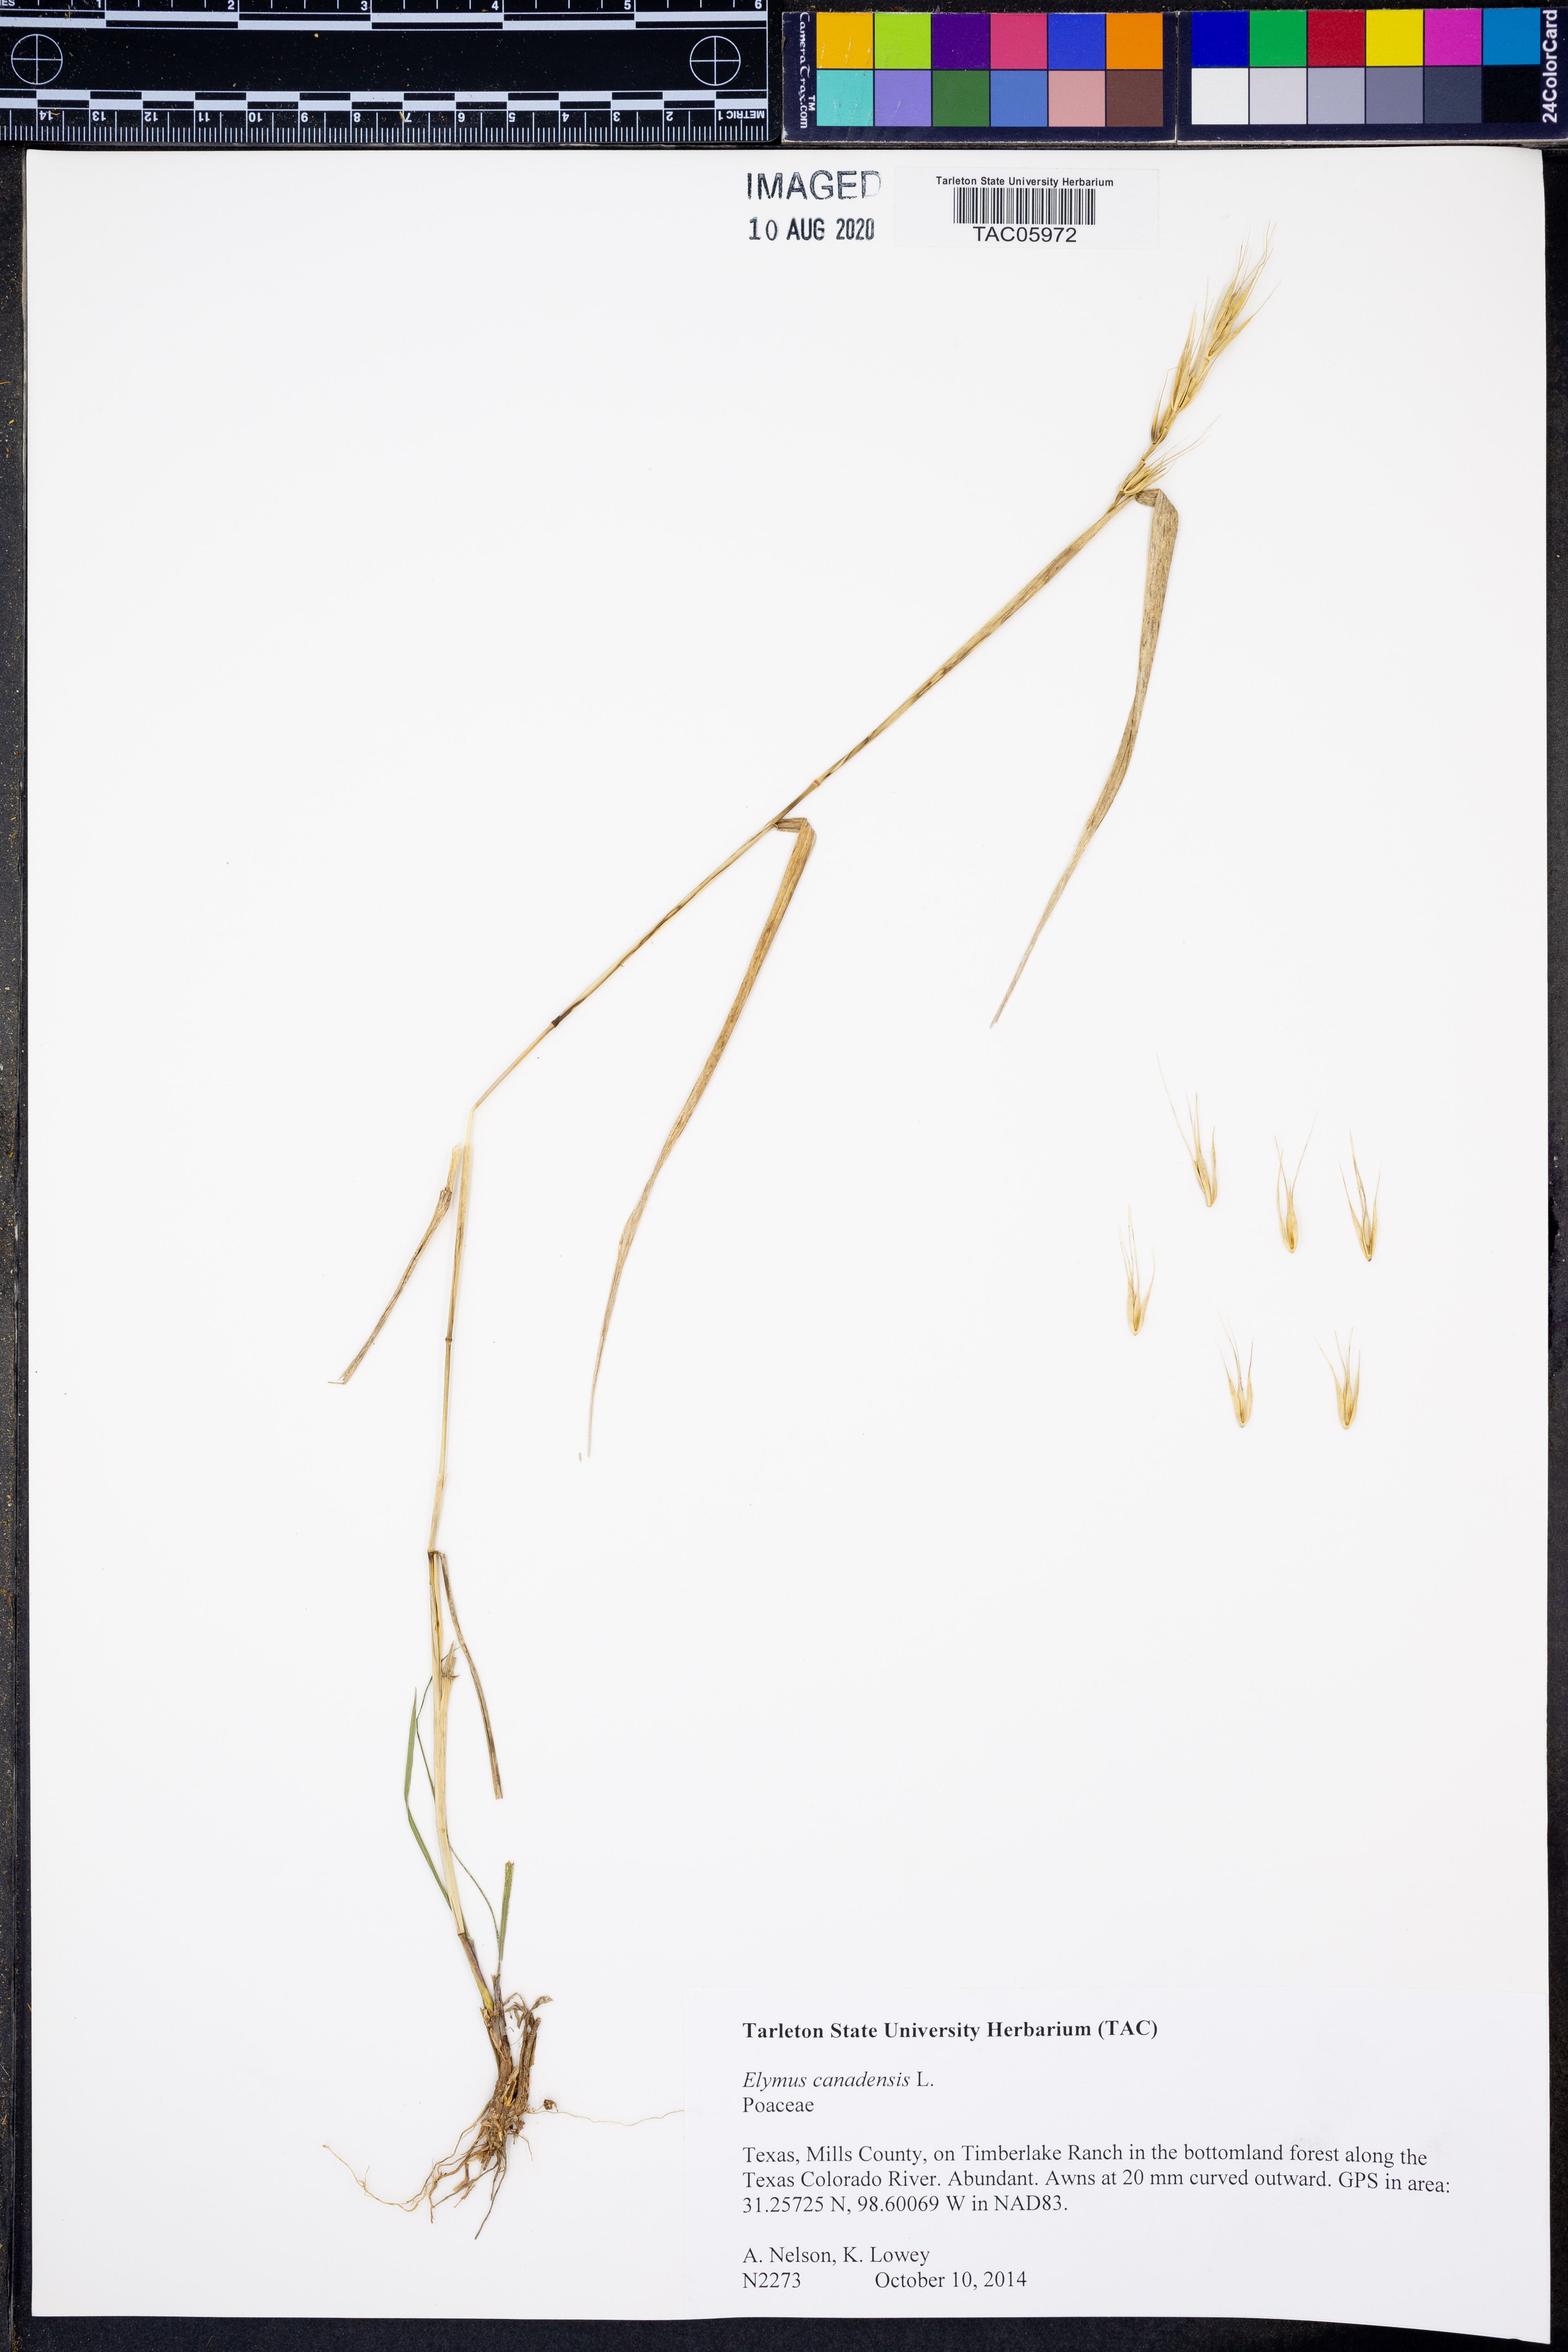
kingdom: Plantae
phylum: Tracheophyta
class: Liliopsida
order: Poales
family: Poaceae
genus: Elymus
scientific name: Elymus canadensis
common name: Canada wild rye
